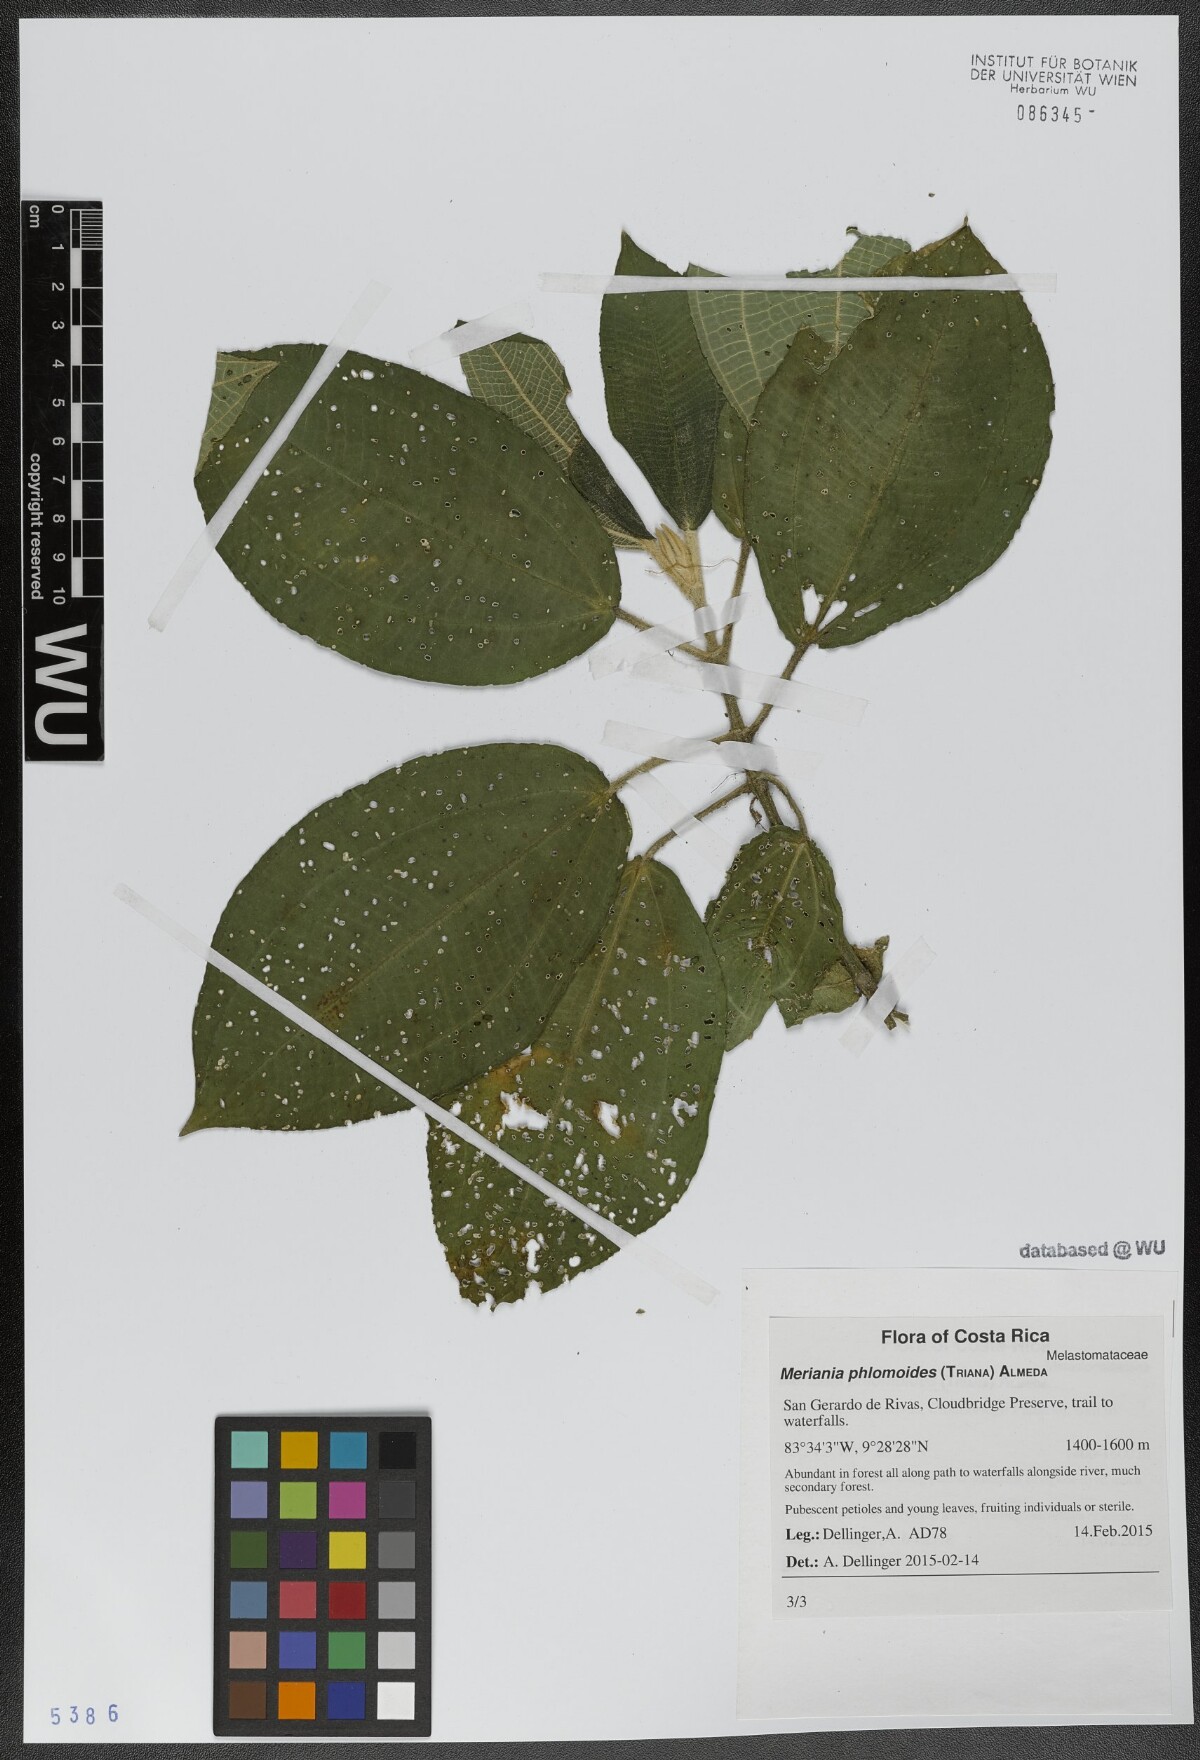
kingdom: Plantae
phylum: Tracheophyta
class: Magnoliopsida
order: Myrtales
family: Melastomataceae
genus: Meriania
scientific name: Meriania phlomoides
